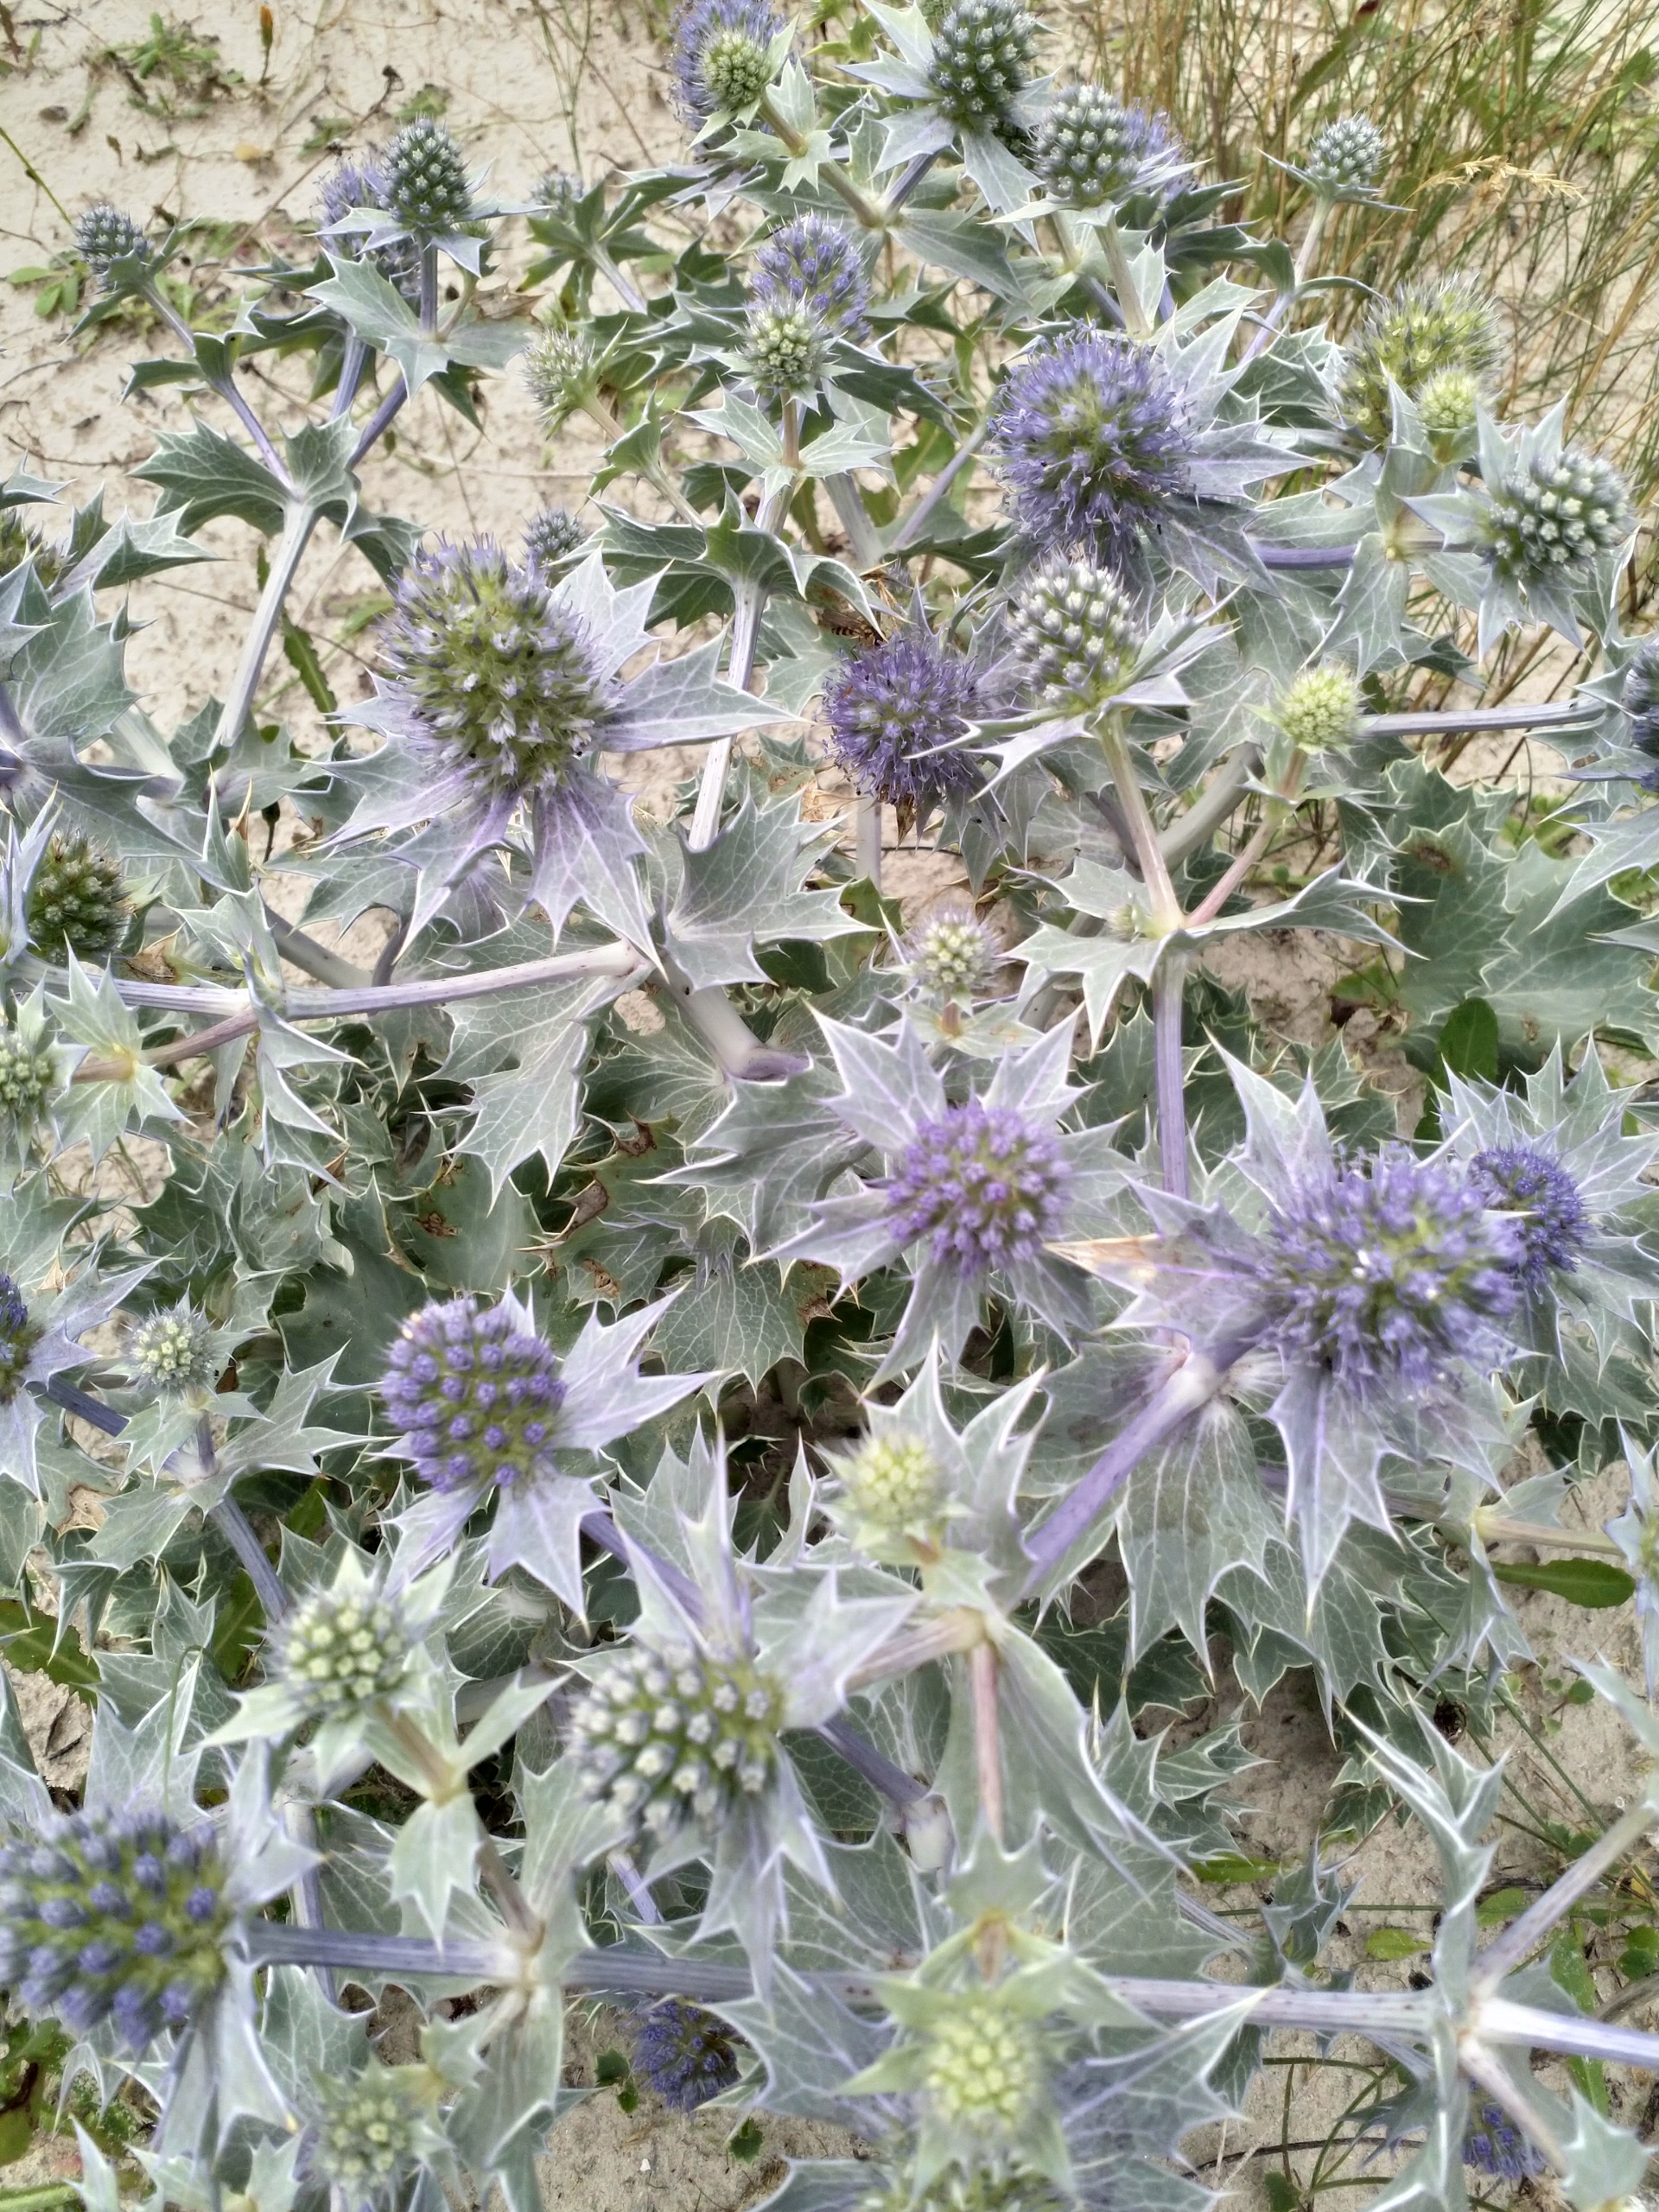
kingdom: Plantae
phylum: Tracheophyta
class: Magnoliopsida
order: Apiales
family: Apiaceae
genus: Eryngium
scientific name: Eryngium maritimum
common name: Strand-mandstro
